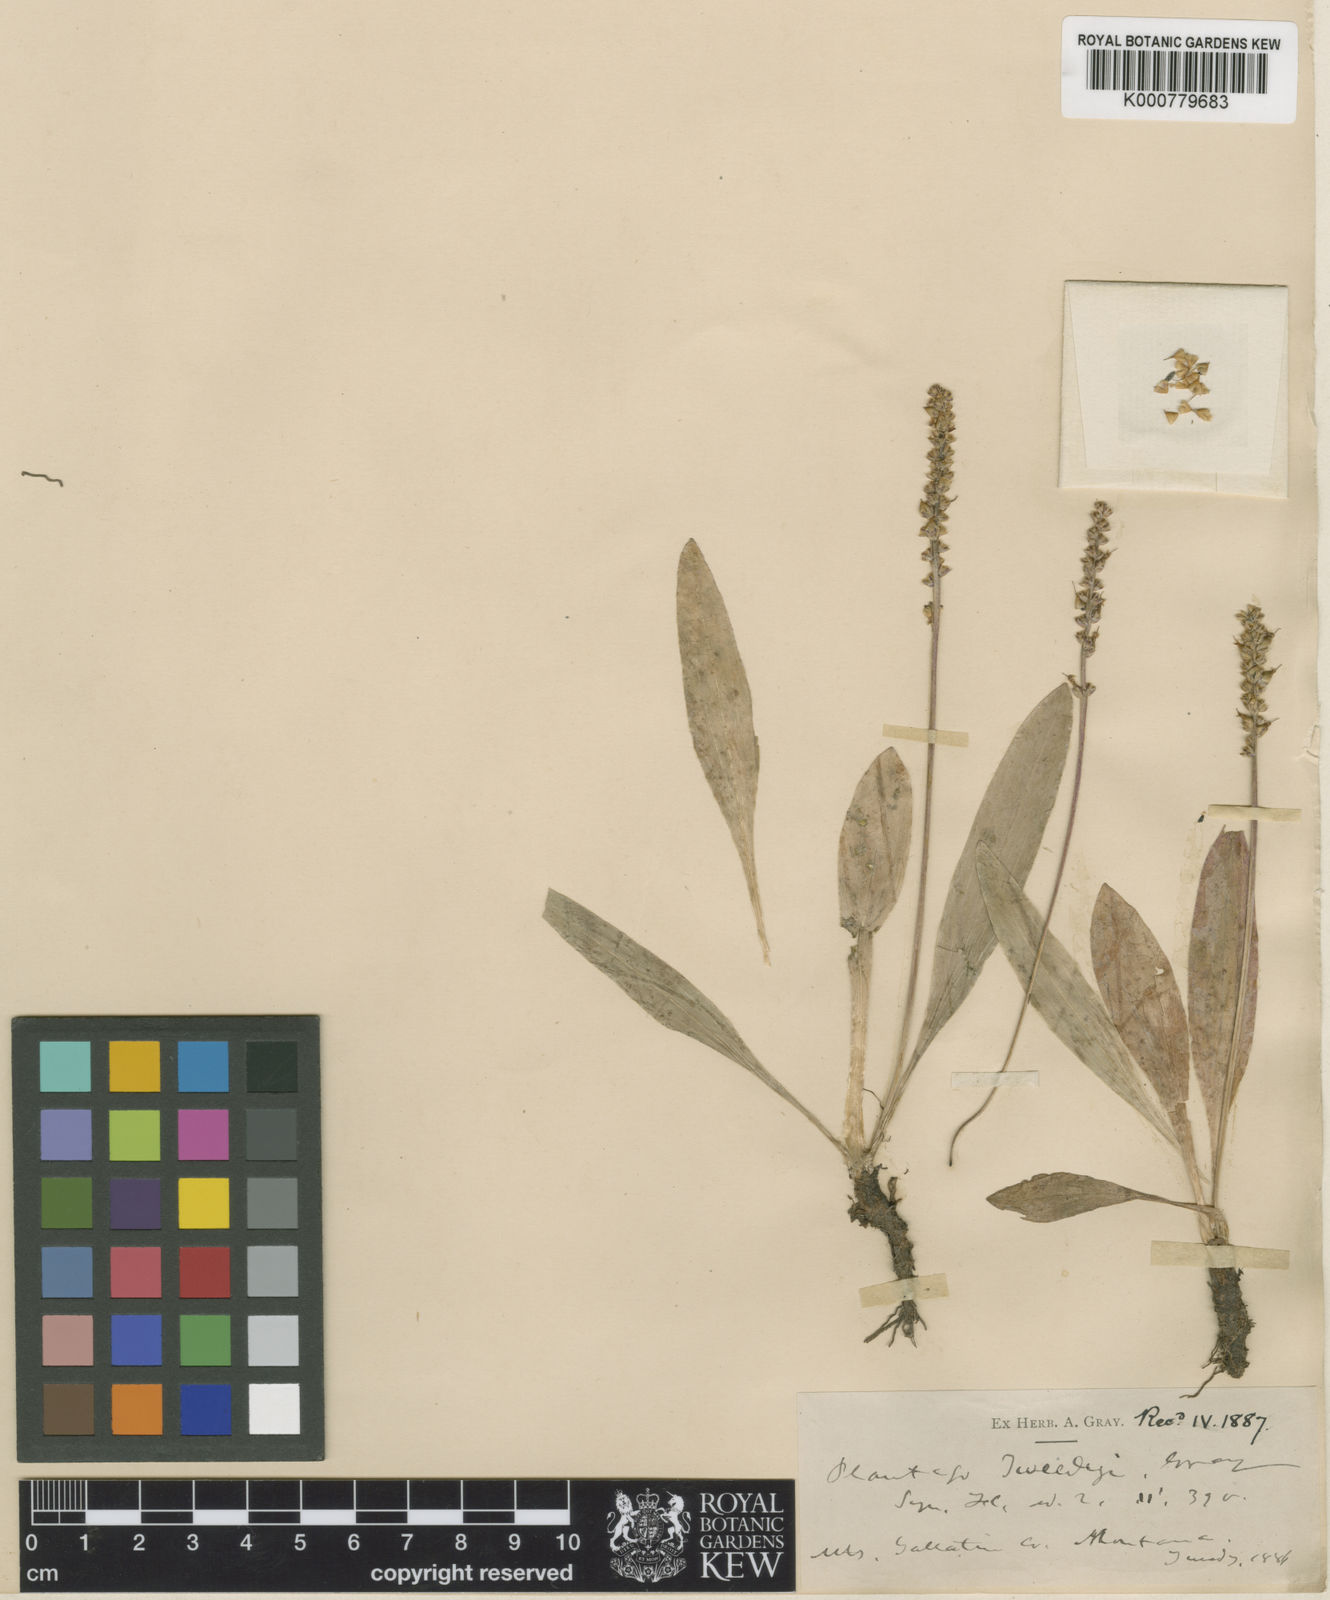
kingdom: Plantae
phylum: Tracheophyta
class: Magnoliopsida
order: Lamiales
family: Plantaginaceae
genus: Plantago
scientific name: Plantago tweedyi
